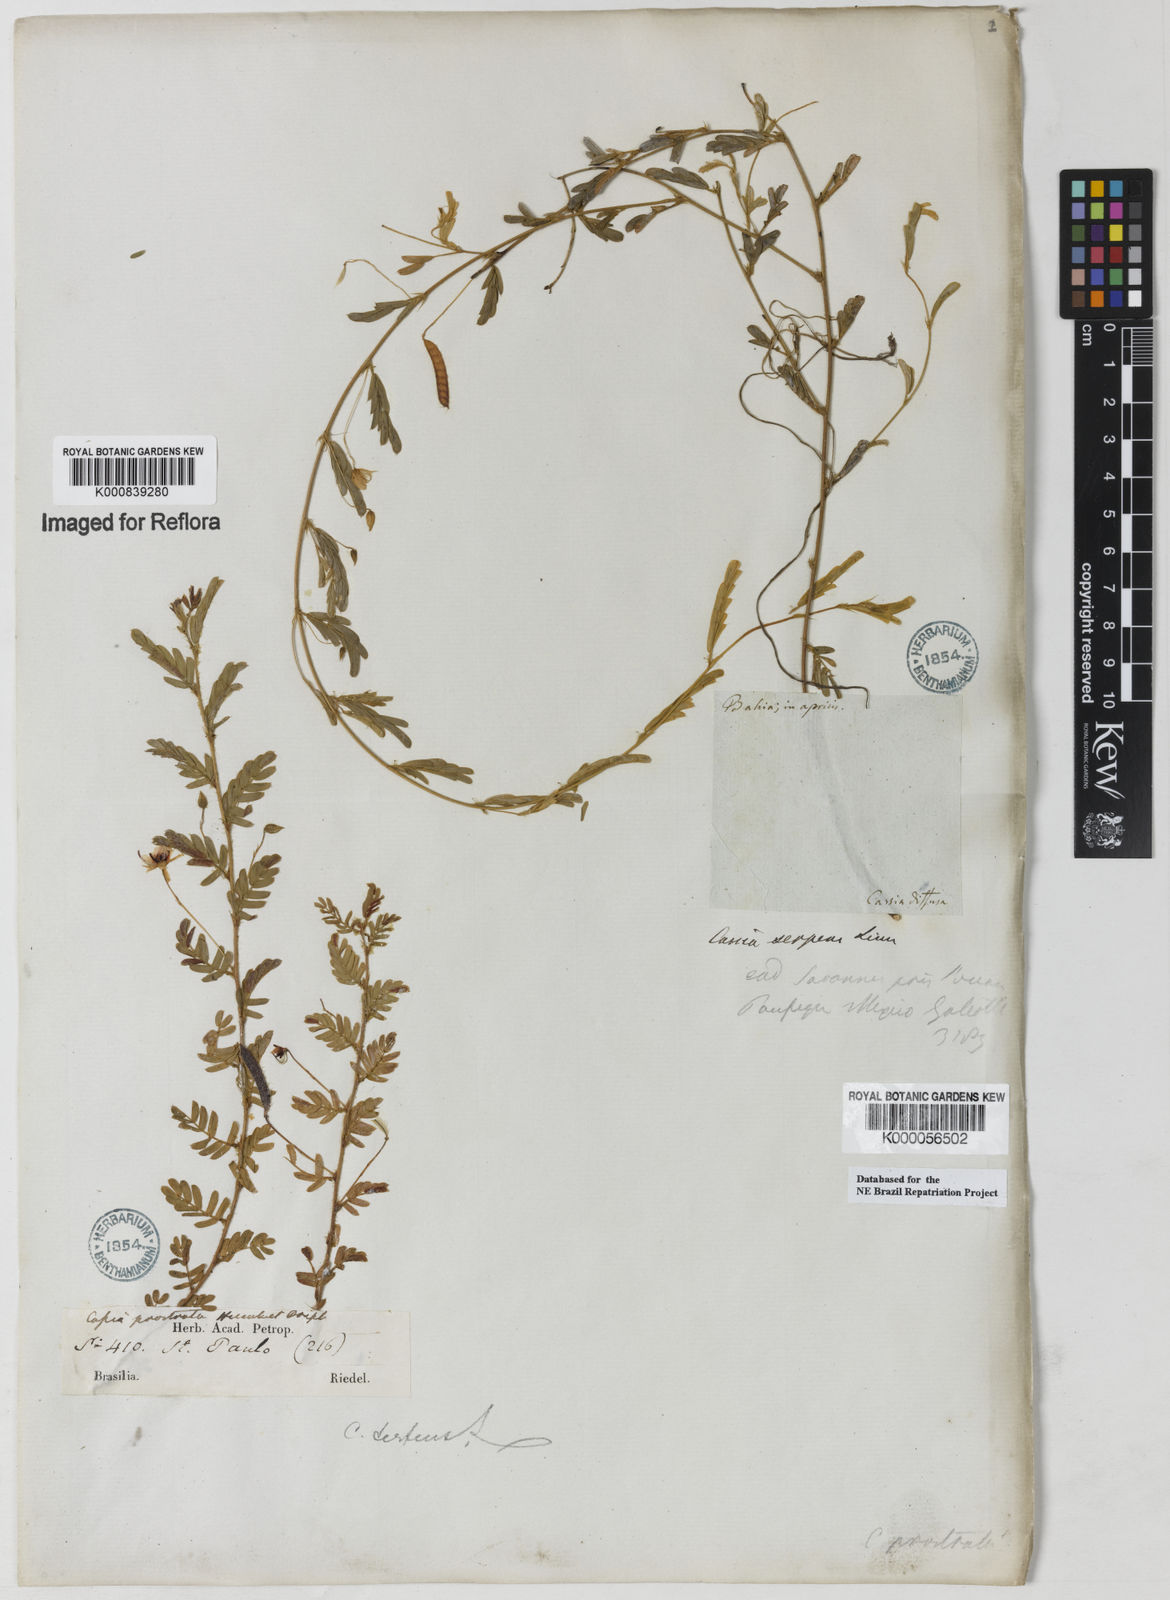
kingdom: Plantae
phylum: Tracheophyta
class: Magnoliopsida
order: Fabales
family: Fabaceae
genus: Chamaecrista
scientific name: Chamaecrista serpens
